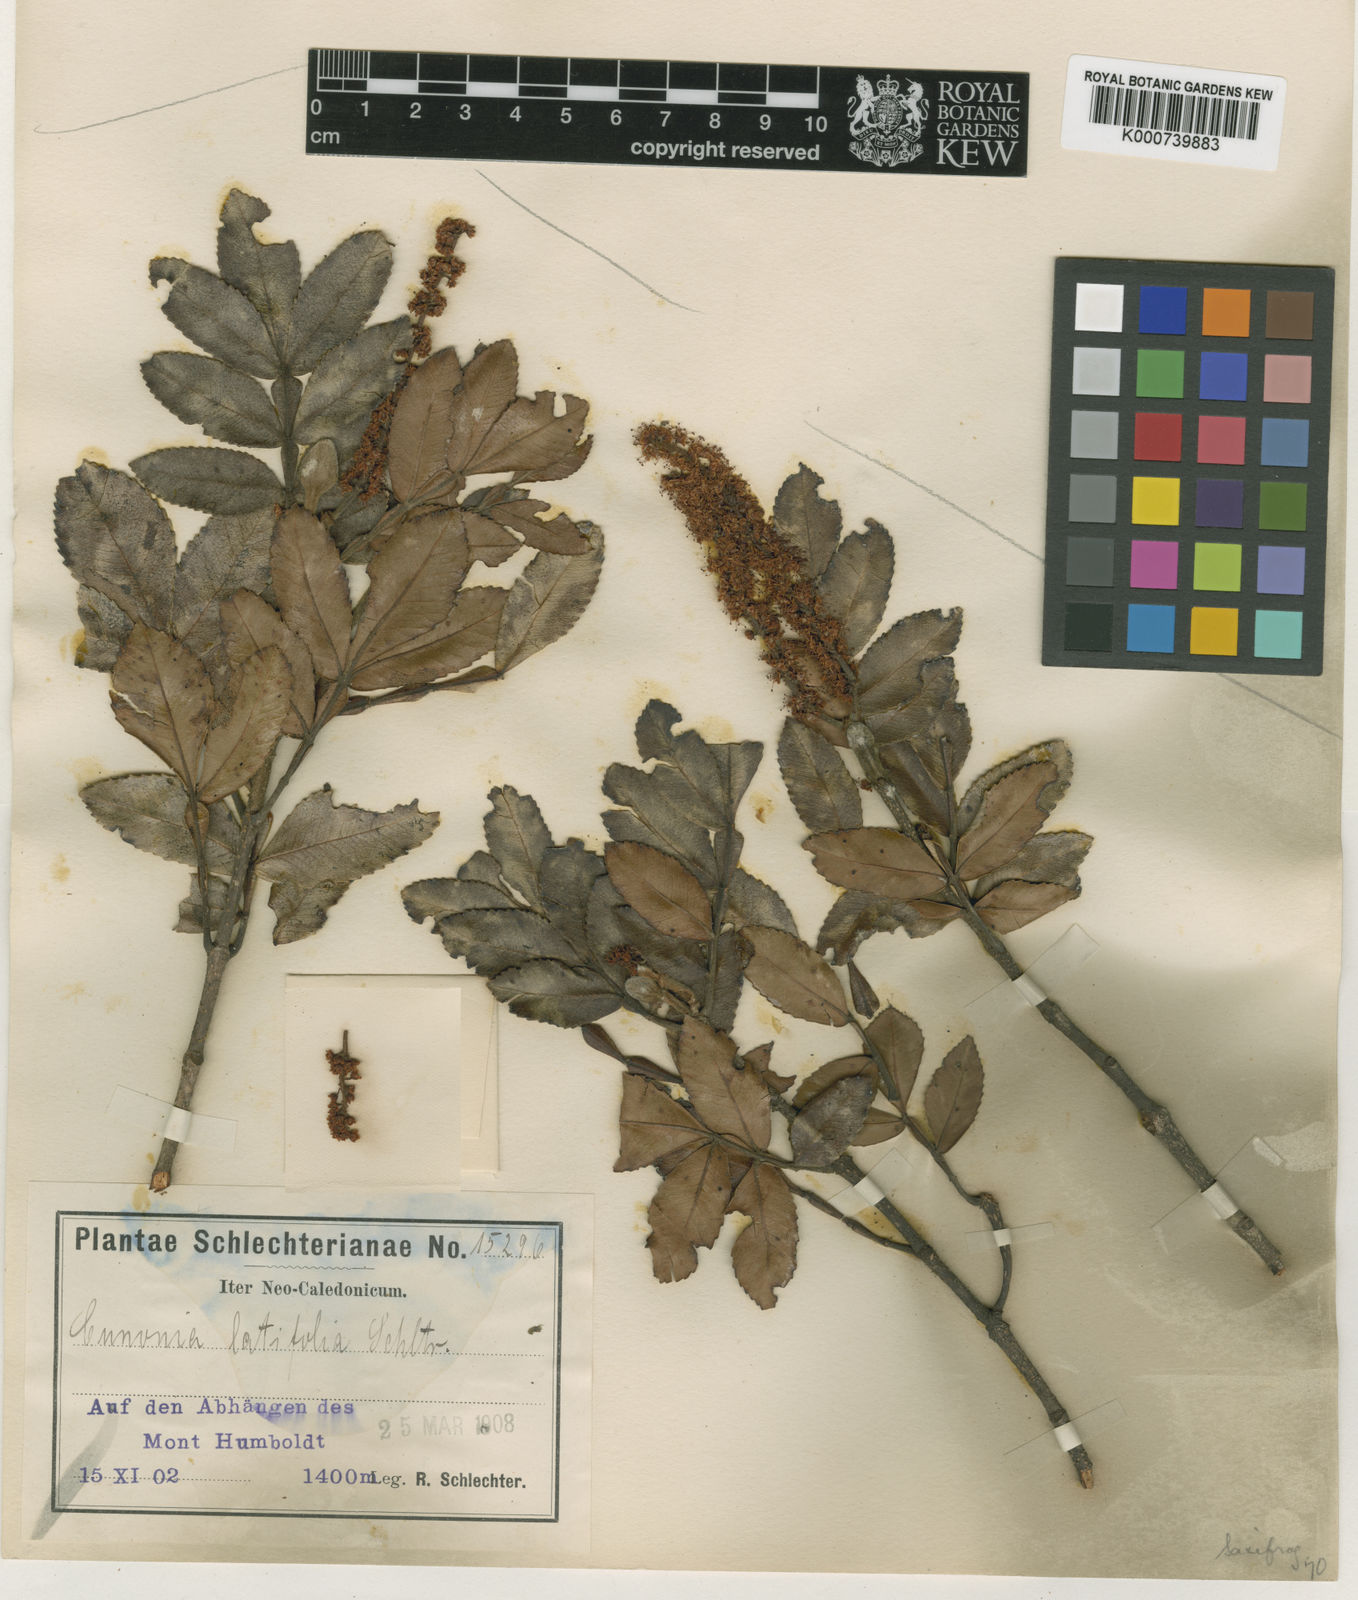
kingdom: Plantae
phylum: Tracheophyta
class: Magnoliopsida
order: Oxalidales
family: Cunoniaceae
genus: Cunonia
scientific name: Cunonia pulchella
